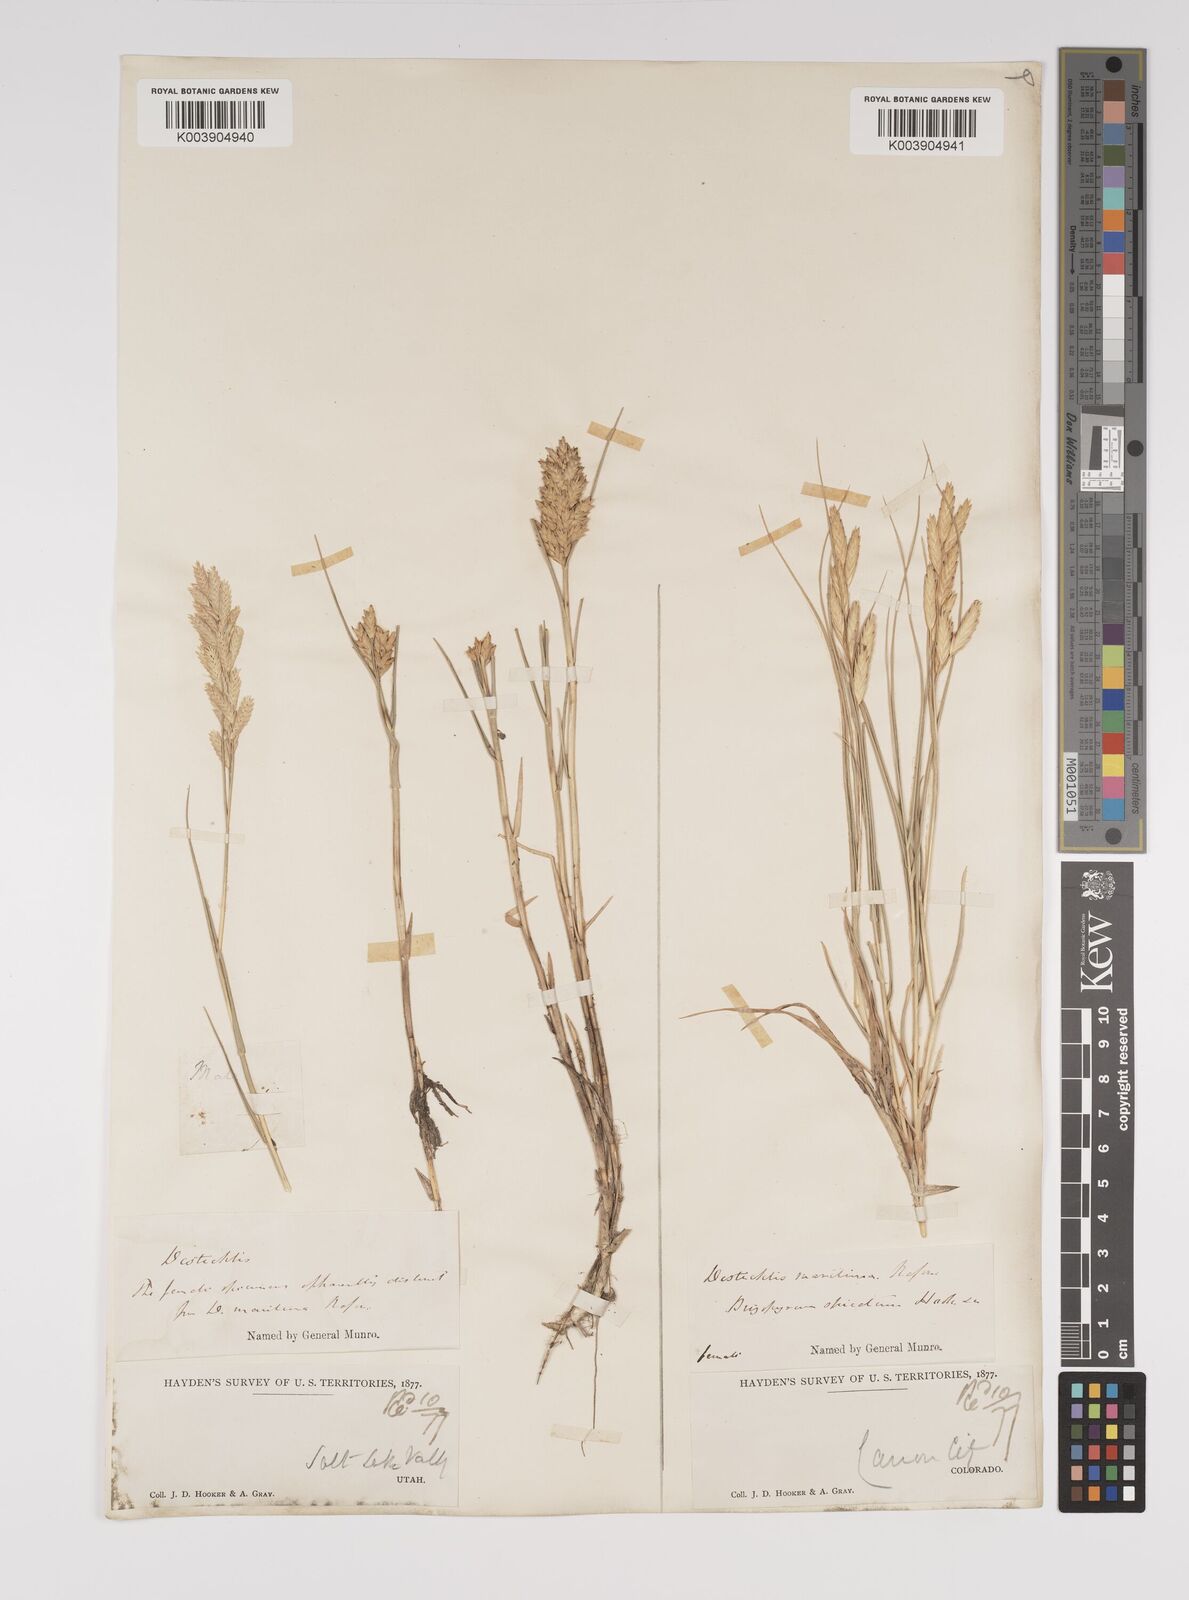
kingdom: Plantae
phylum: Tracheophyta
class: Liliopsida
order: Poales
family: Poaceae
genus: Distichlis
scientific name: Distichlis spicata
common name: Saltgrass
